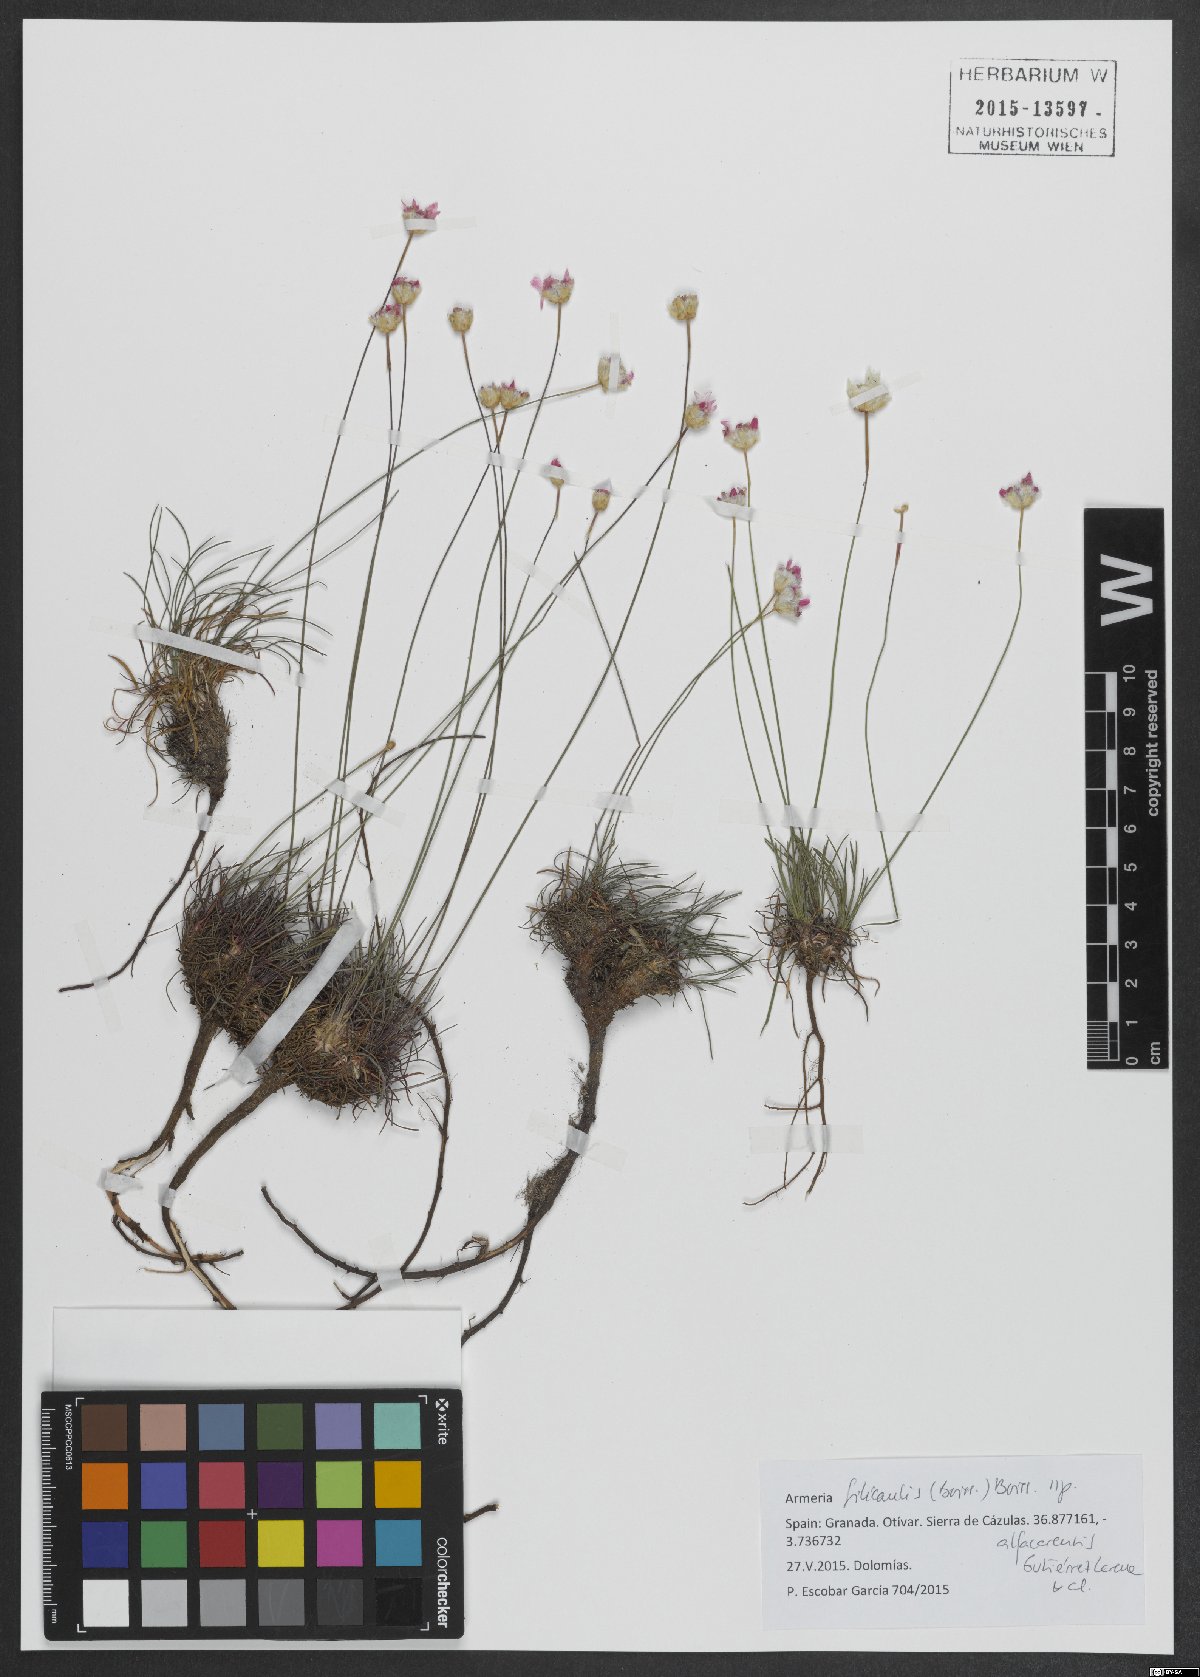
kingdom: Plantae
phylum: Tracheophyta
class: Magnoliopsida
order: Caryophyllales
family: Plumbaginaceae
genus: Armeria
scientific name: Armeria filicaulis
